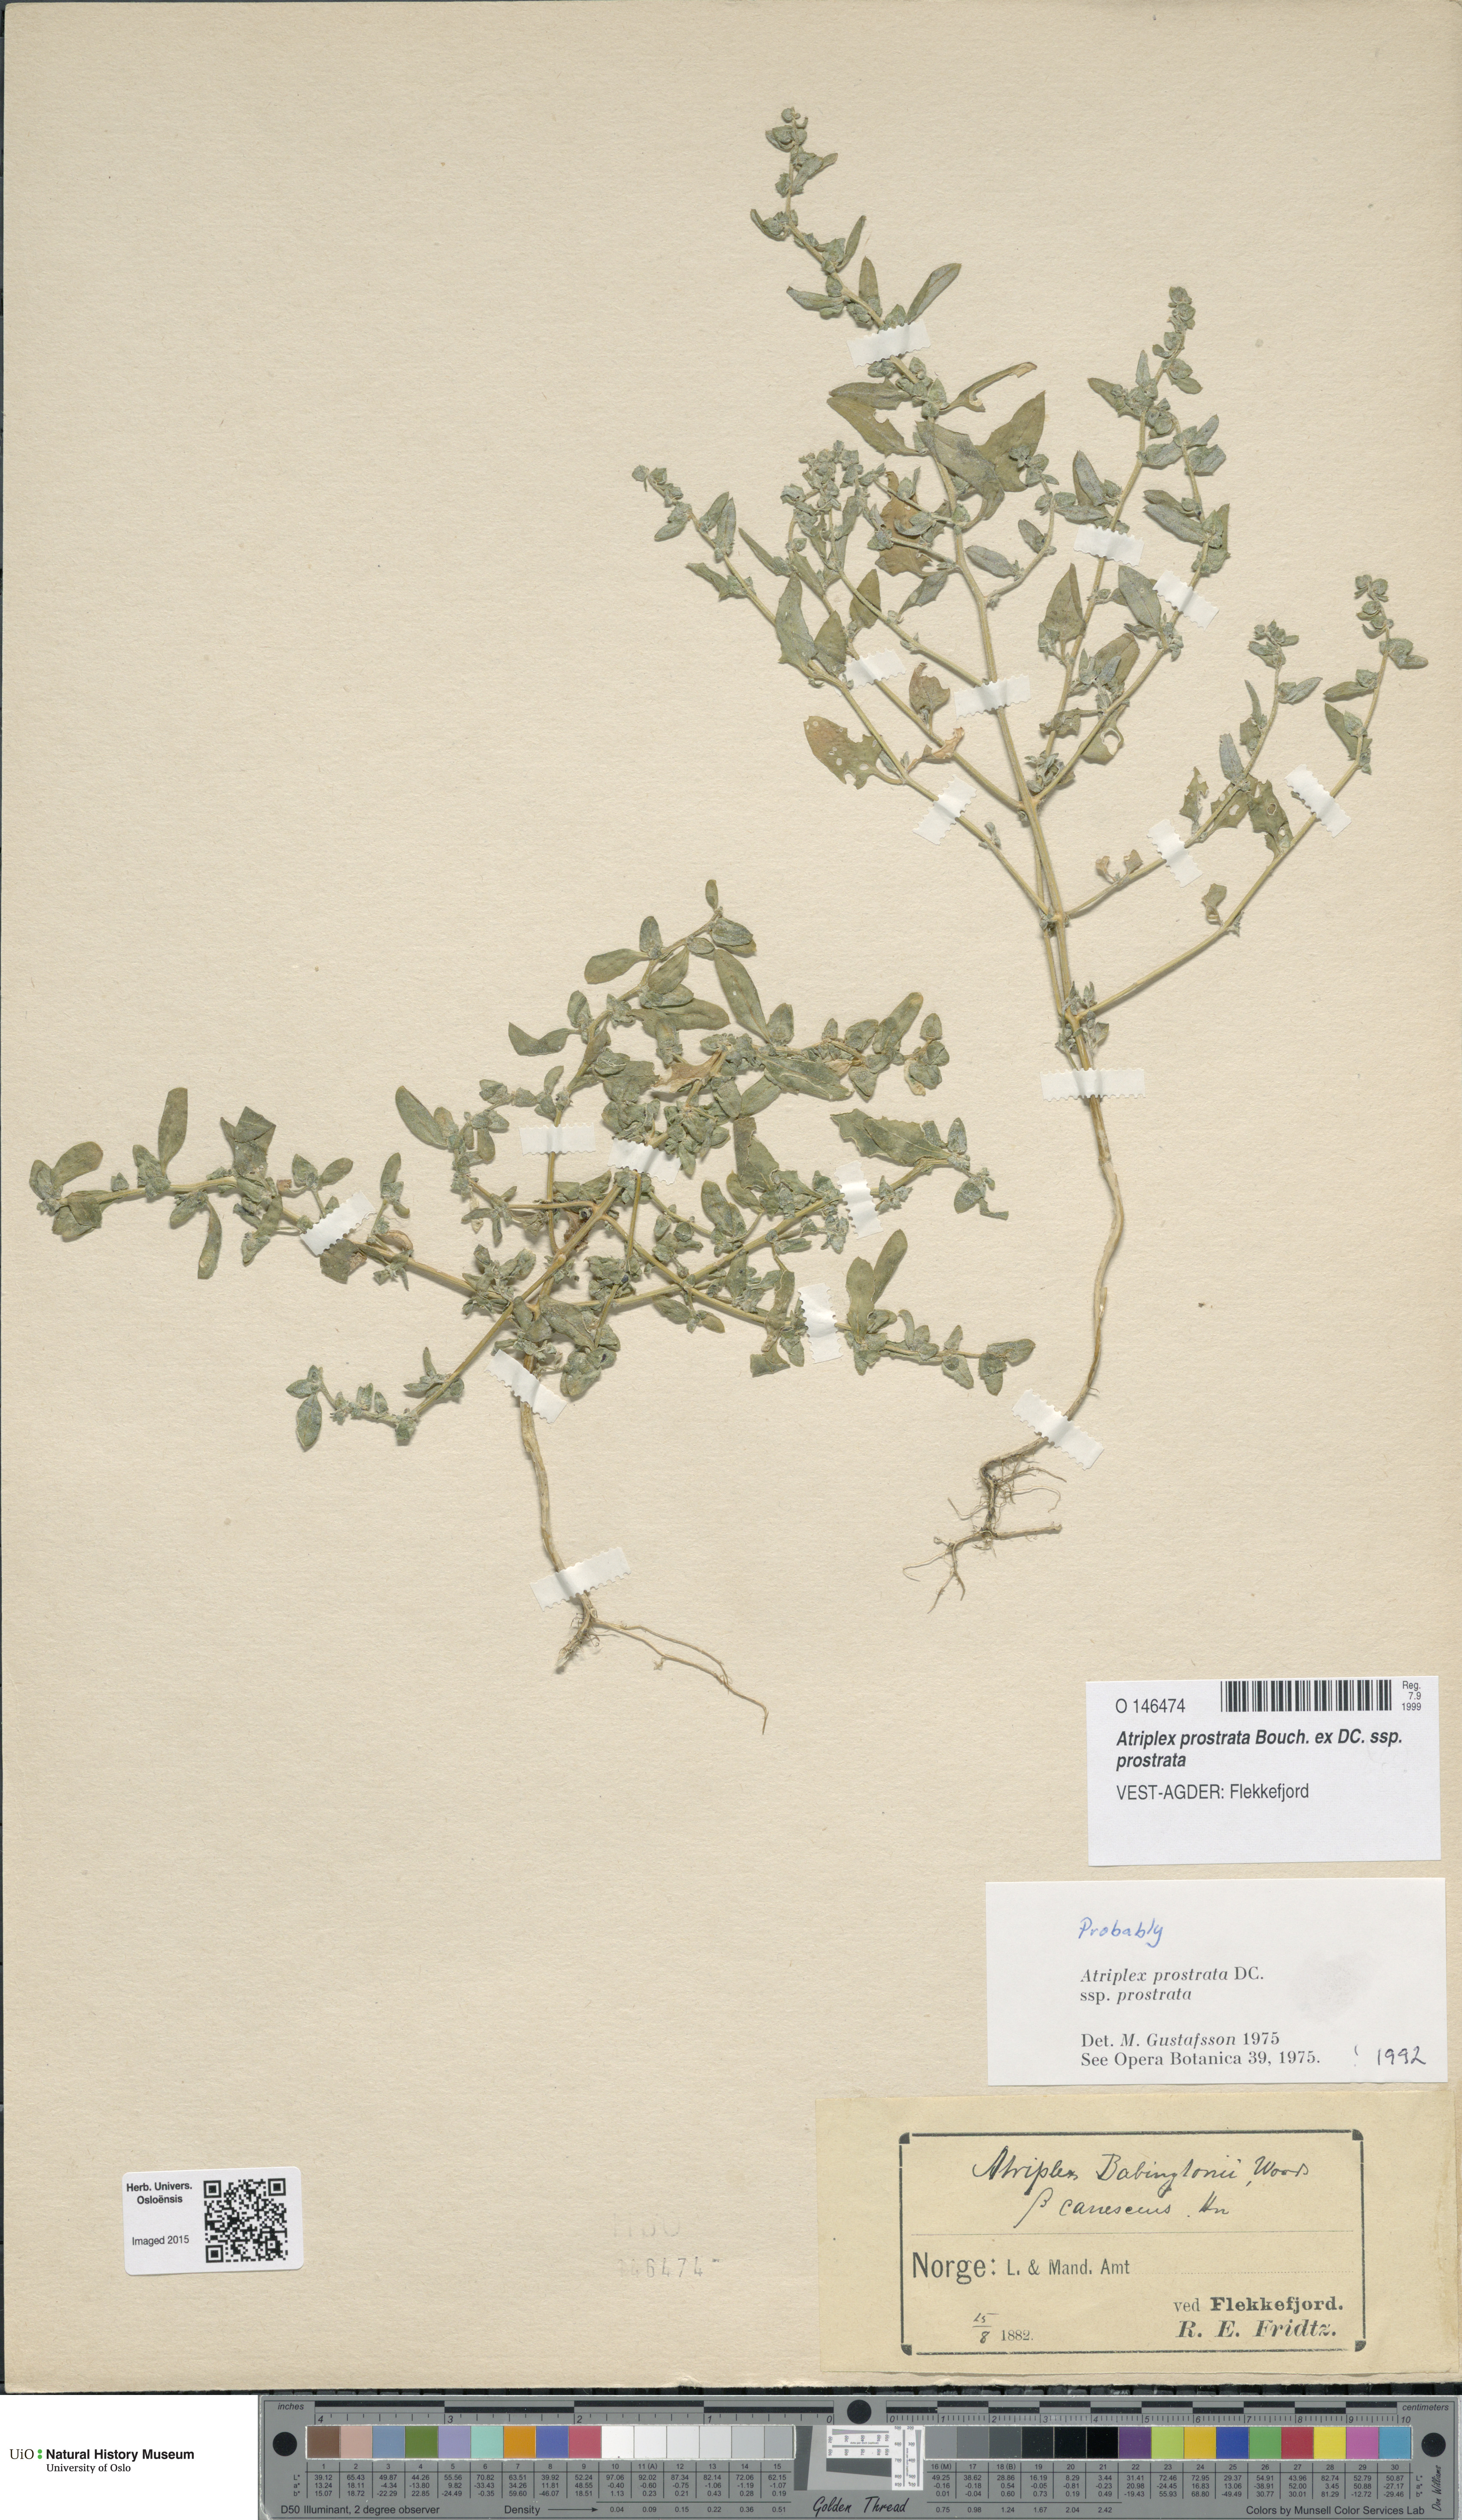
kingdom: Plantae
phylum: Tracheophyta
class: Magnoliopsida
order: Caryophyllales
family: Amaranthaceae
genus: Atriplex
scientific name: Atriplex prostrata
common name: Spear-leaved orache
